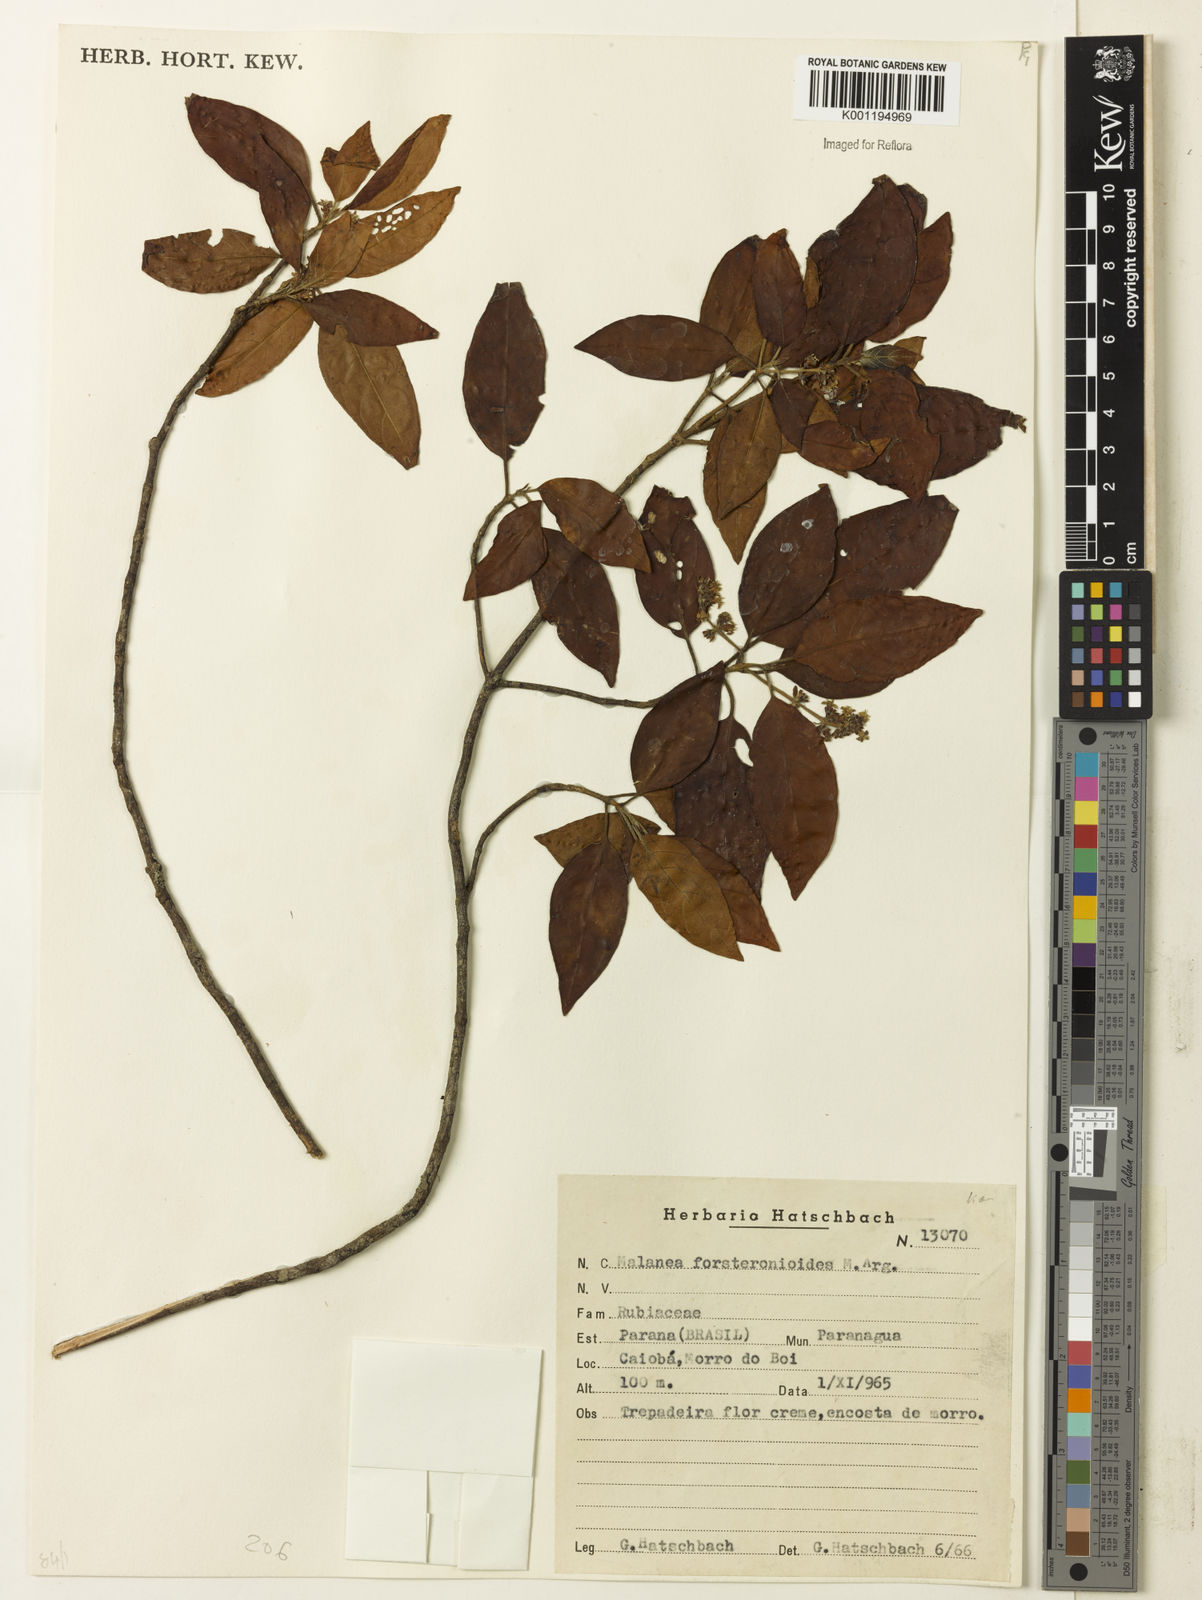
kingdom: Plantae
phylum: Tracheophyta
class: Magnoliopsida
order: Gentianales
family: Rubiaceae
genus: Malanea
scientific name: Malanea
